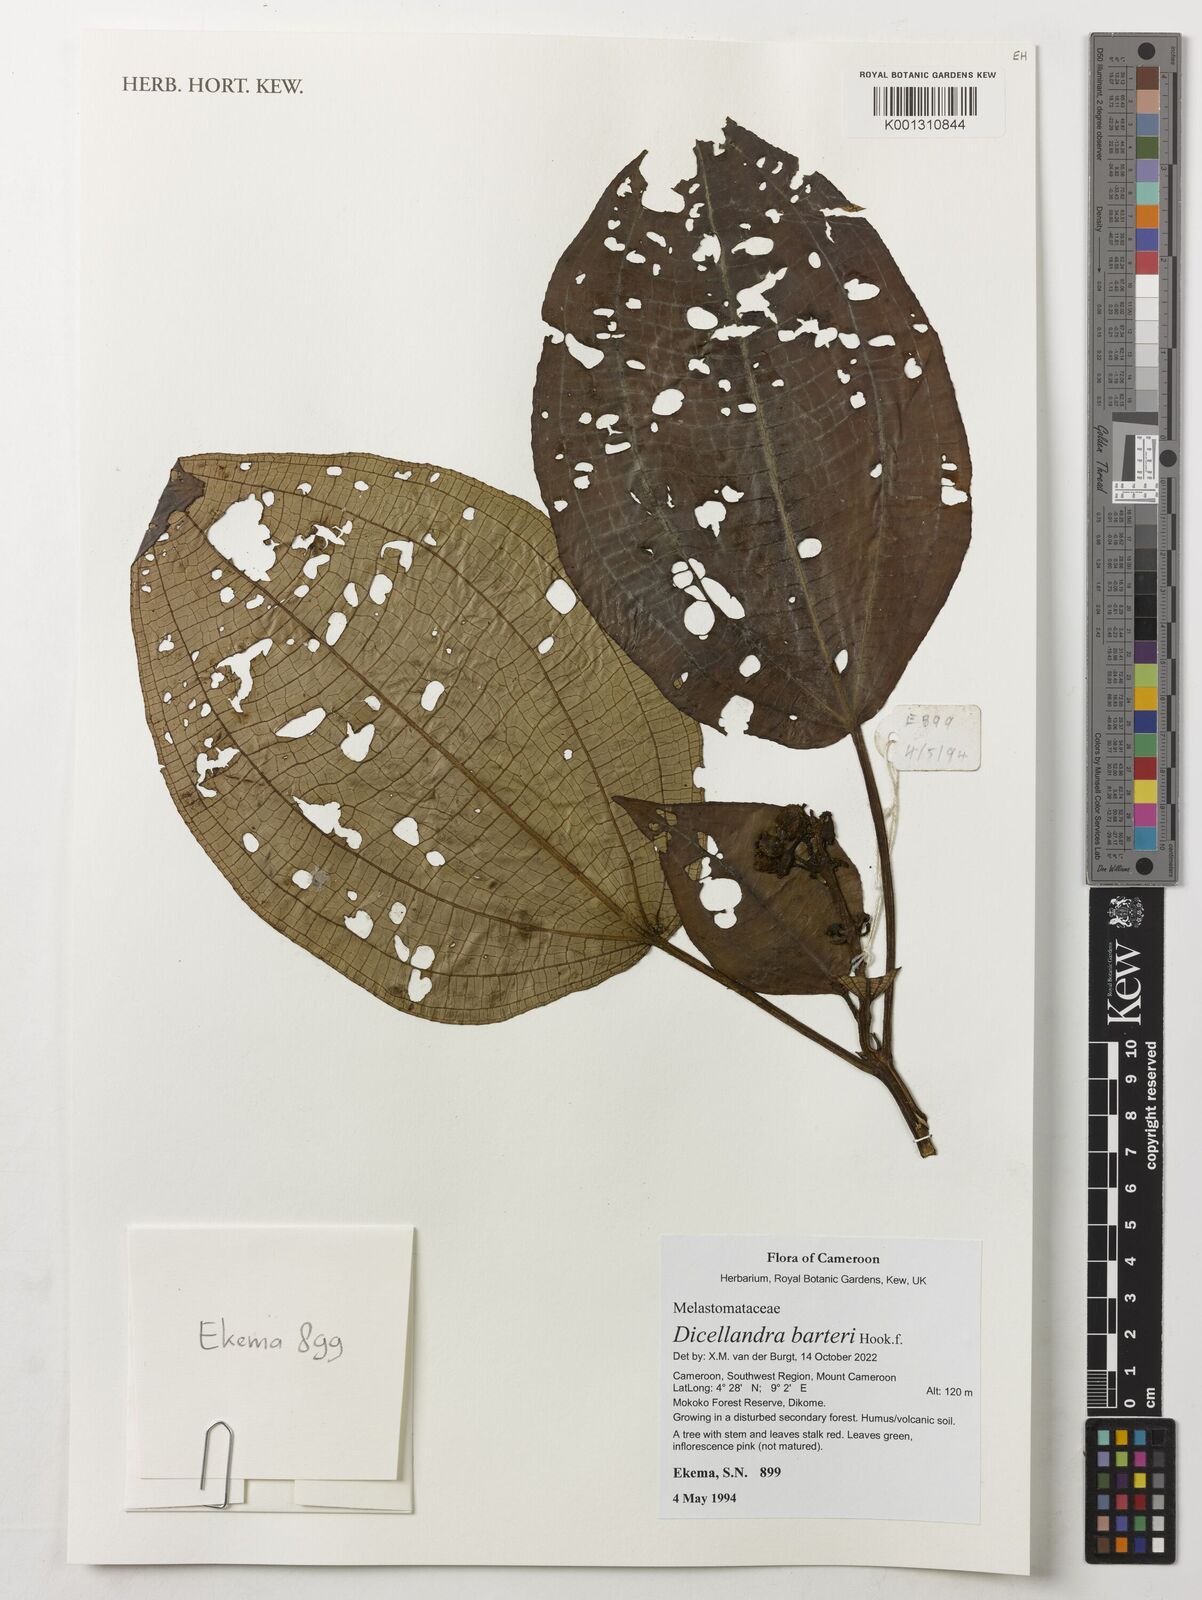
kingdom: Plantae
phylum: Tracheophyta
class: Magnoliopsida
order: Myrtales
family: Melastomataceae
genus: Dicellandra
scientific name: Dicellandra barteri
